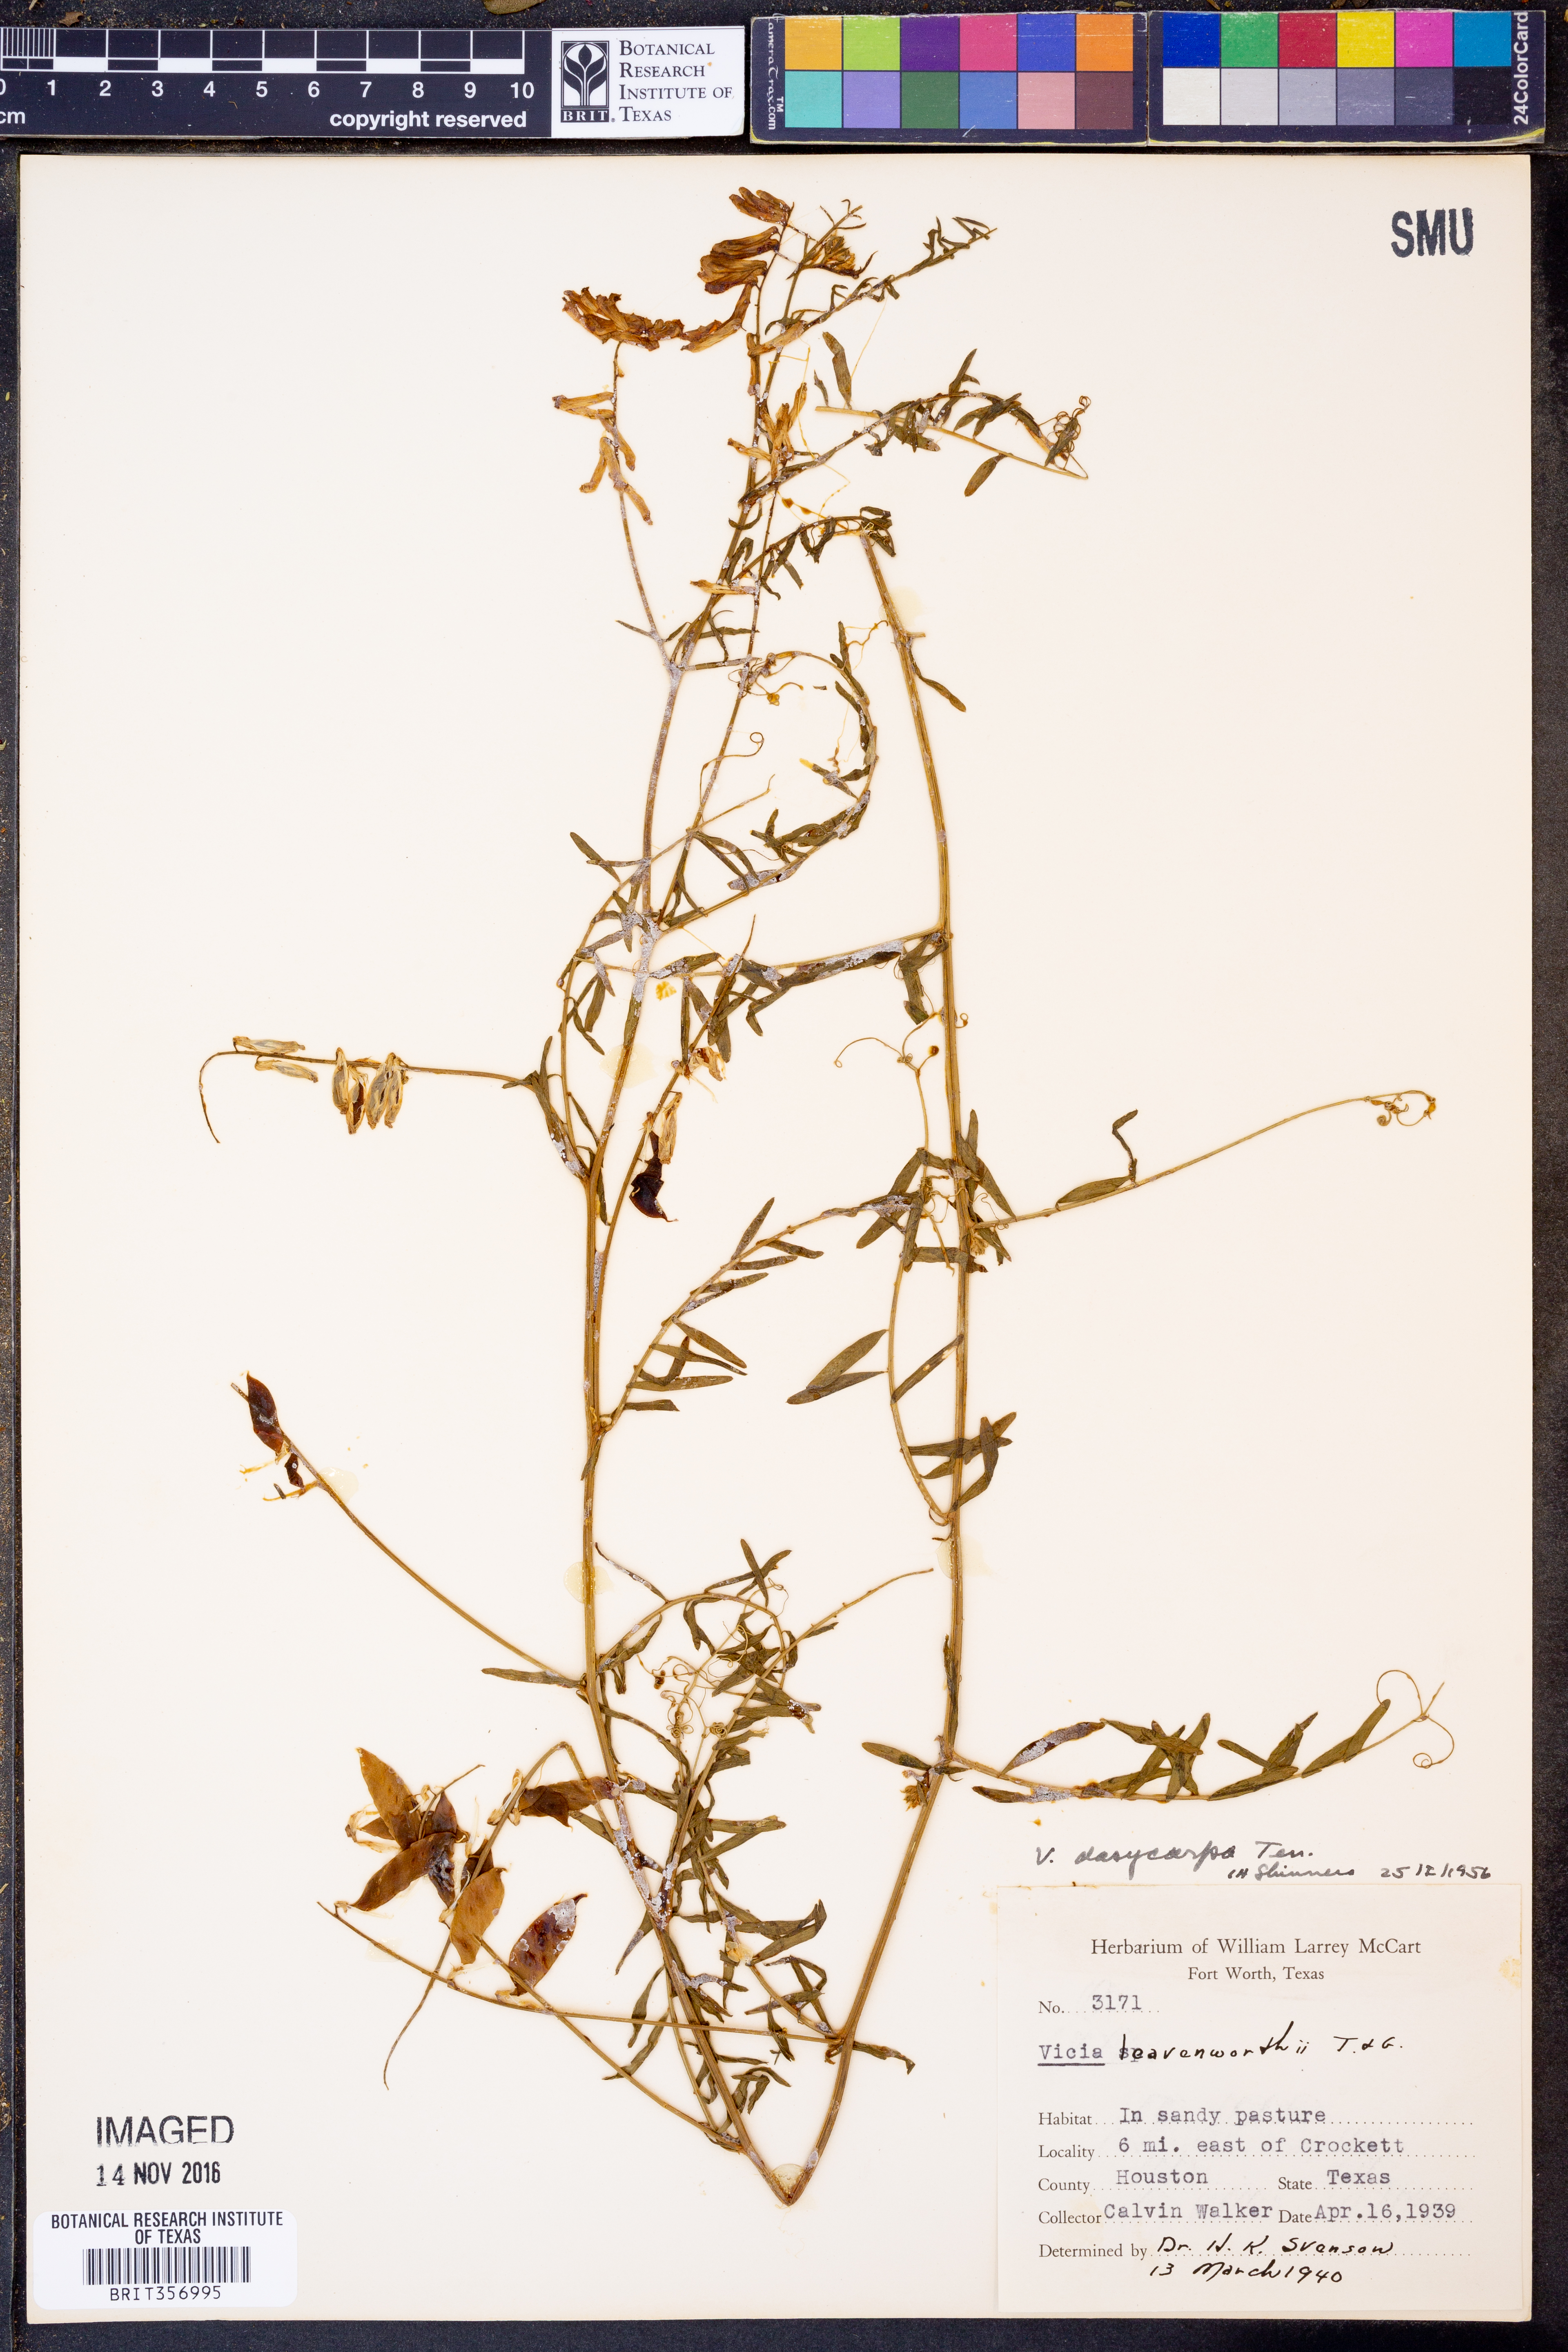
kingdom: Plantae
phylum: Tracheophyta
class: Magnoliopsida
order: Fabales
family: Fabaceae
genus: Vicia
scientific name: Vicia villosa
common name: Fodder vetch
